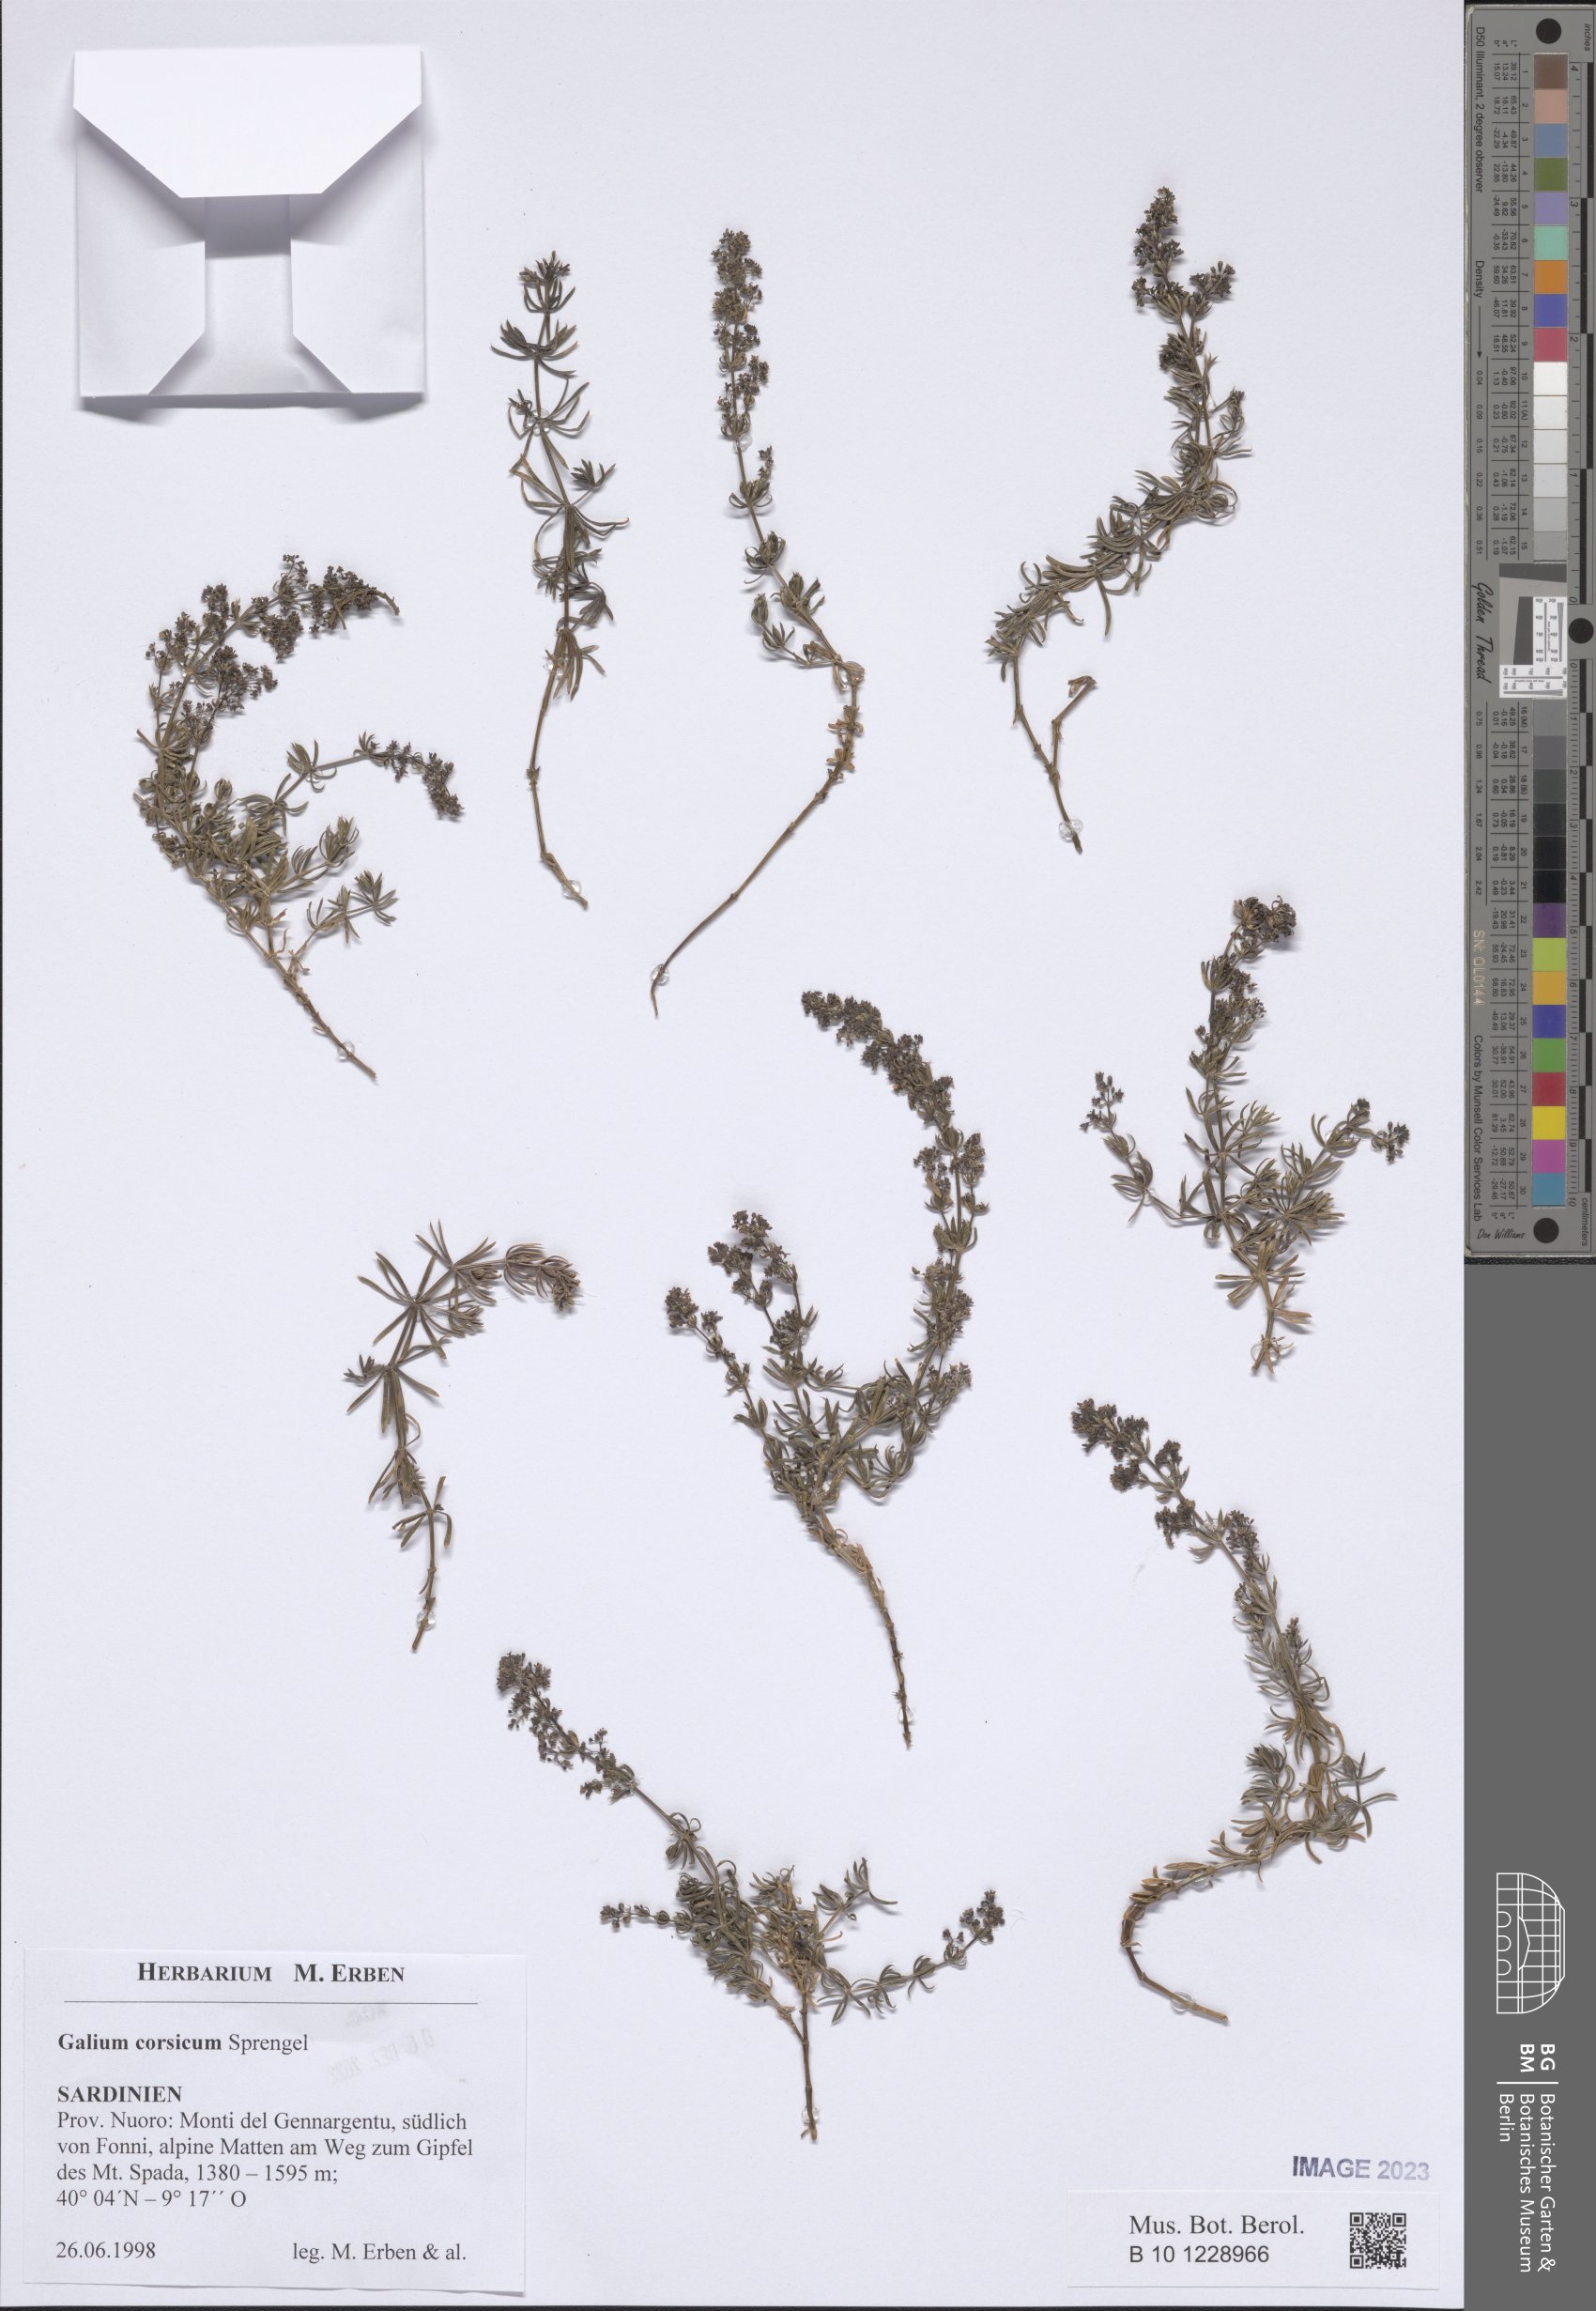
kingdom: Plantae
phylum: Tracheophyta
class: Magnoliopsida
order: Gentianales
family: Rubiaceae
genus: Galium
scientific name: Galium corsicum
